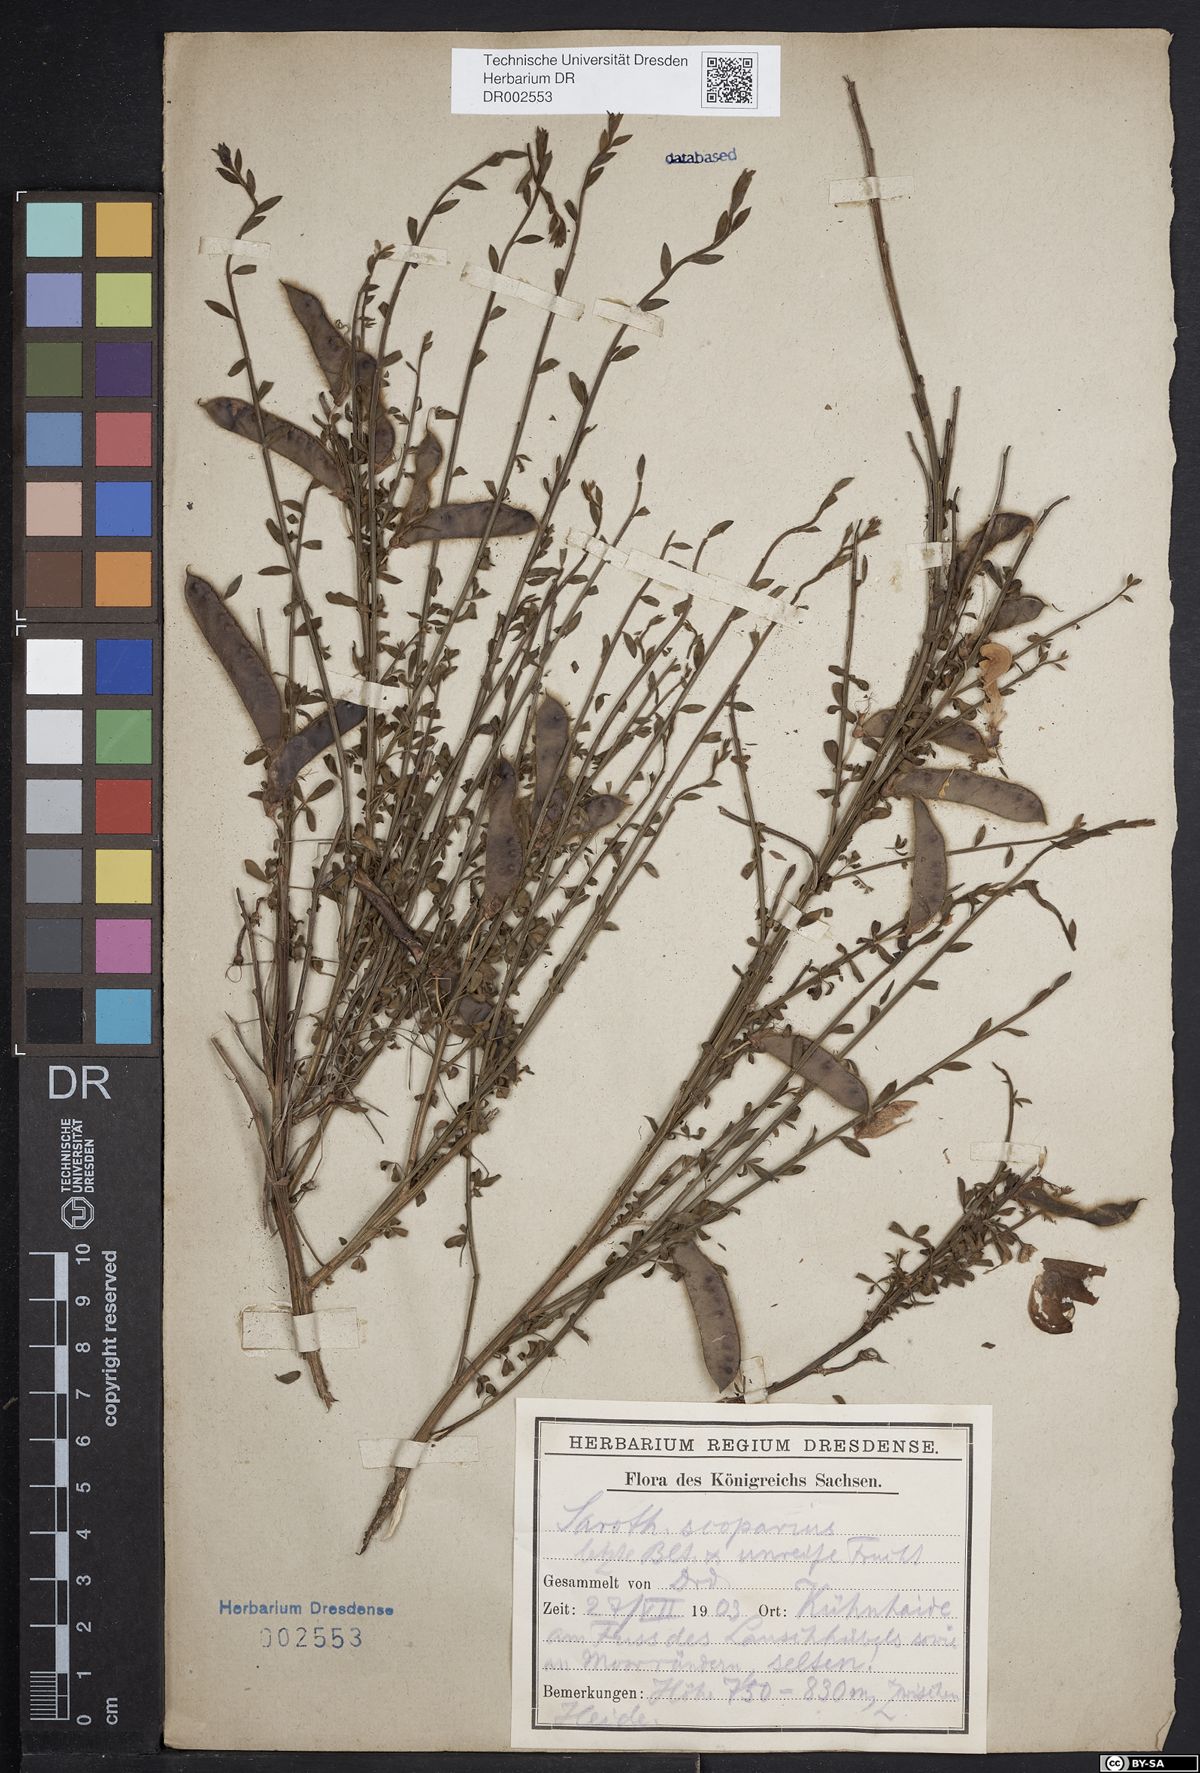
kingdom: Plantae
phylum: Tracheophyta
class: Magnoliopsida
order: Fabales
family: Fabaceae
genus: Cytisus
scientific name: Cytisus scoparius
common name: Scotch broom
